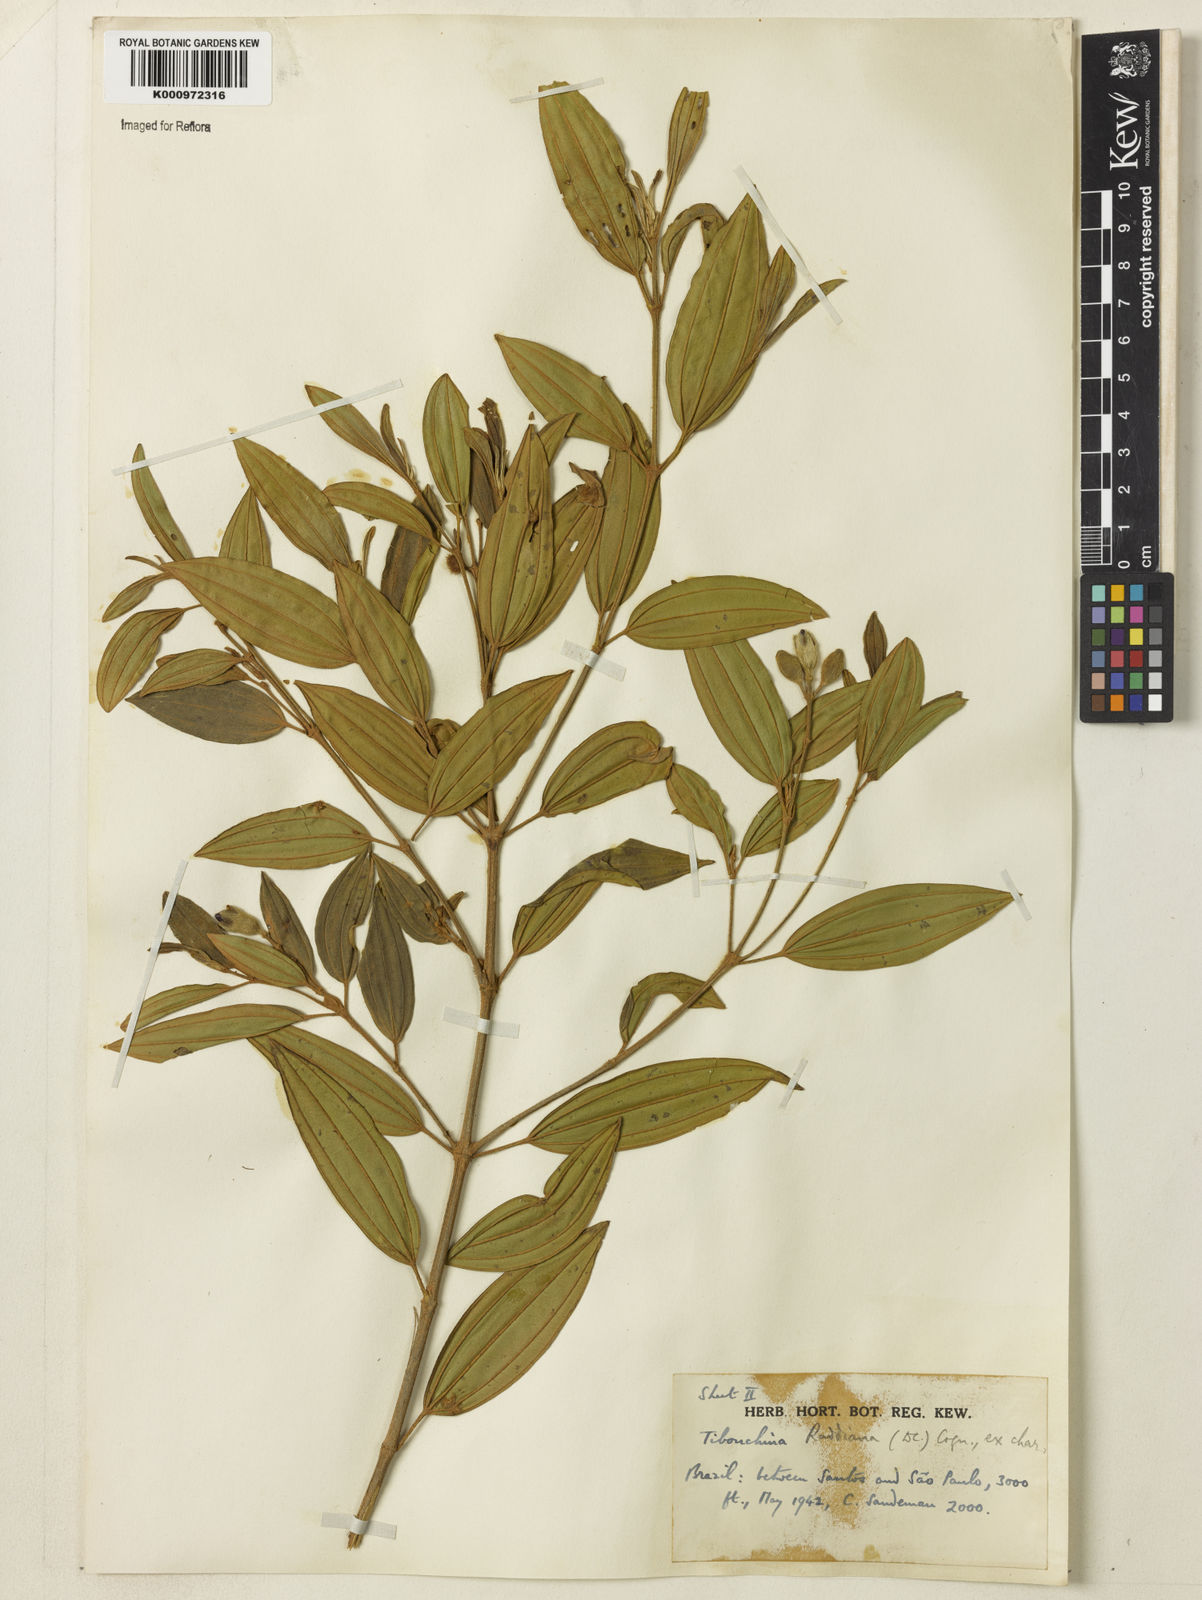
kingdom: Plantae
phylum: Tracheophyta
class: Magnoliopsida
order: Myrtales
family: Melastomataceae
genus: Pleroma
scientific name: Pleroma raddianum
